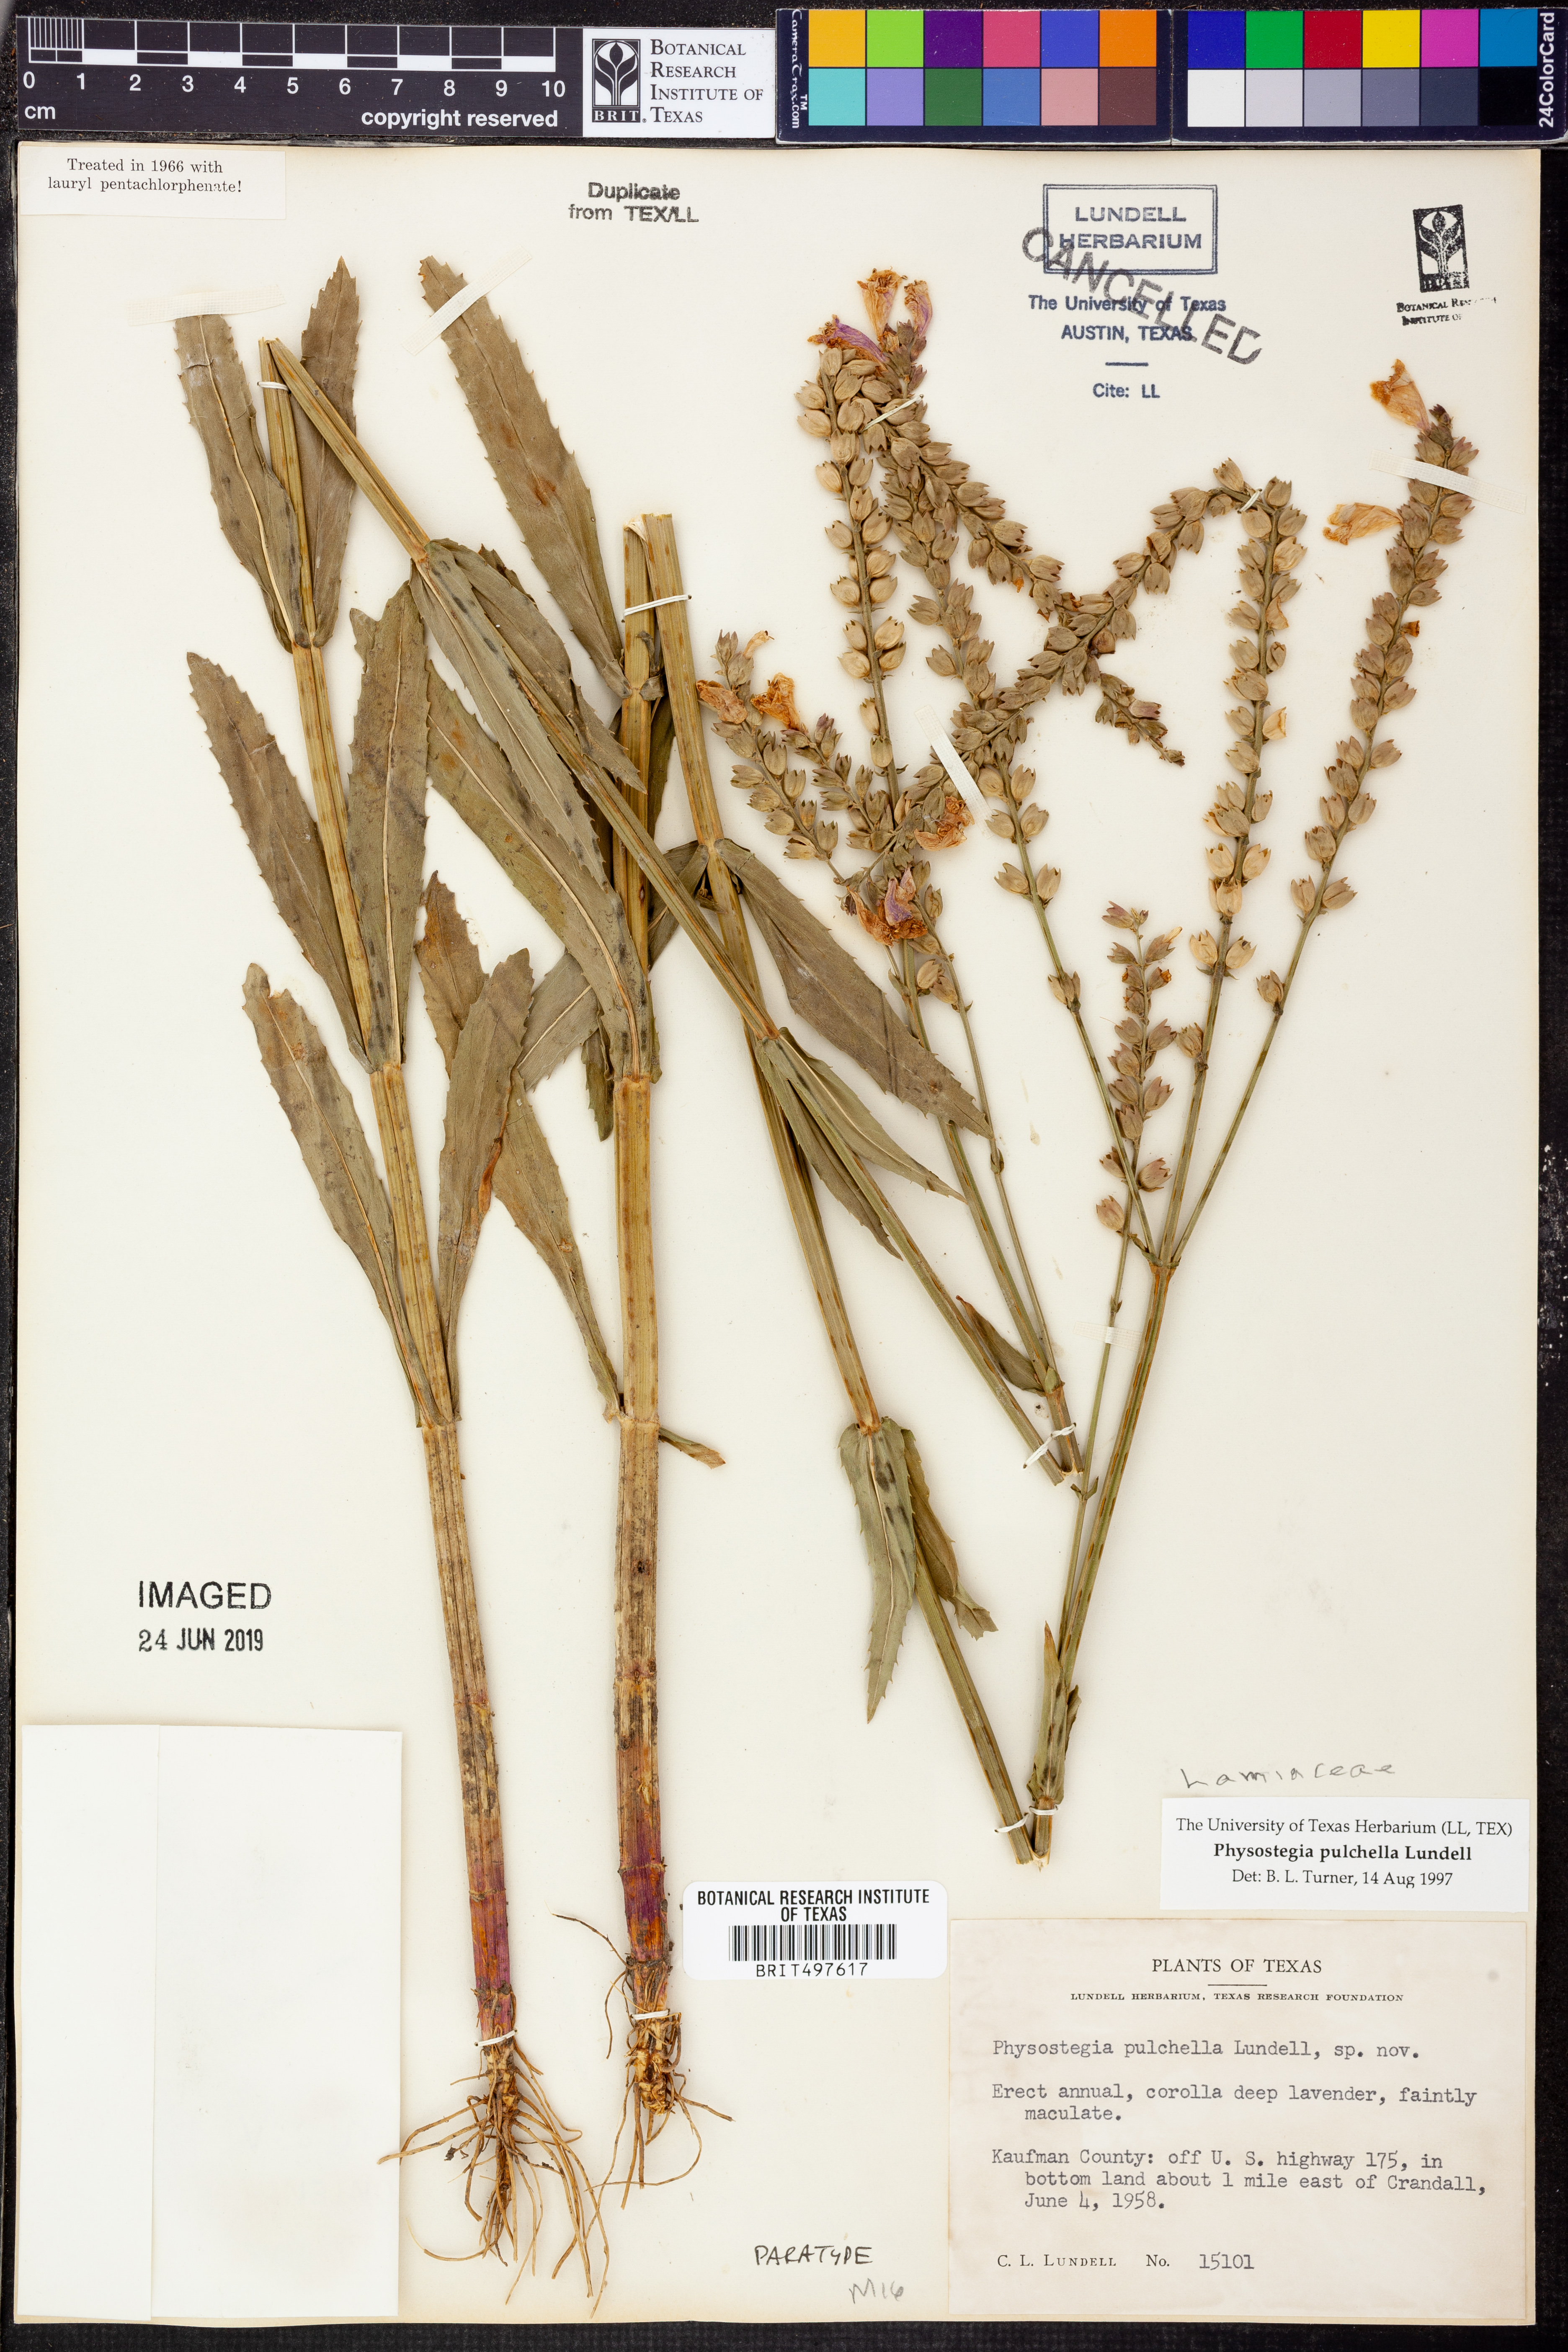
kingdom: Plantae
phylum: Tracheophyta
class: Magnoliopsida
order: Lamiales
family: Lamiaceae
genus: Physostegia
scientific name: Physostegia pulchella
